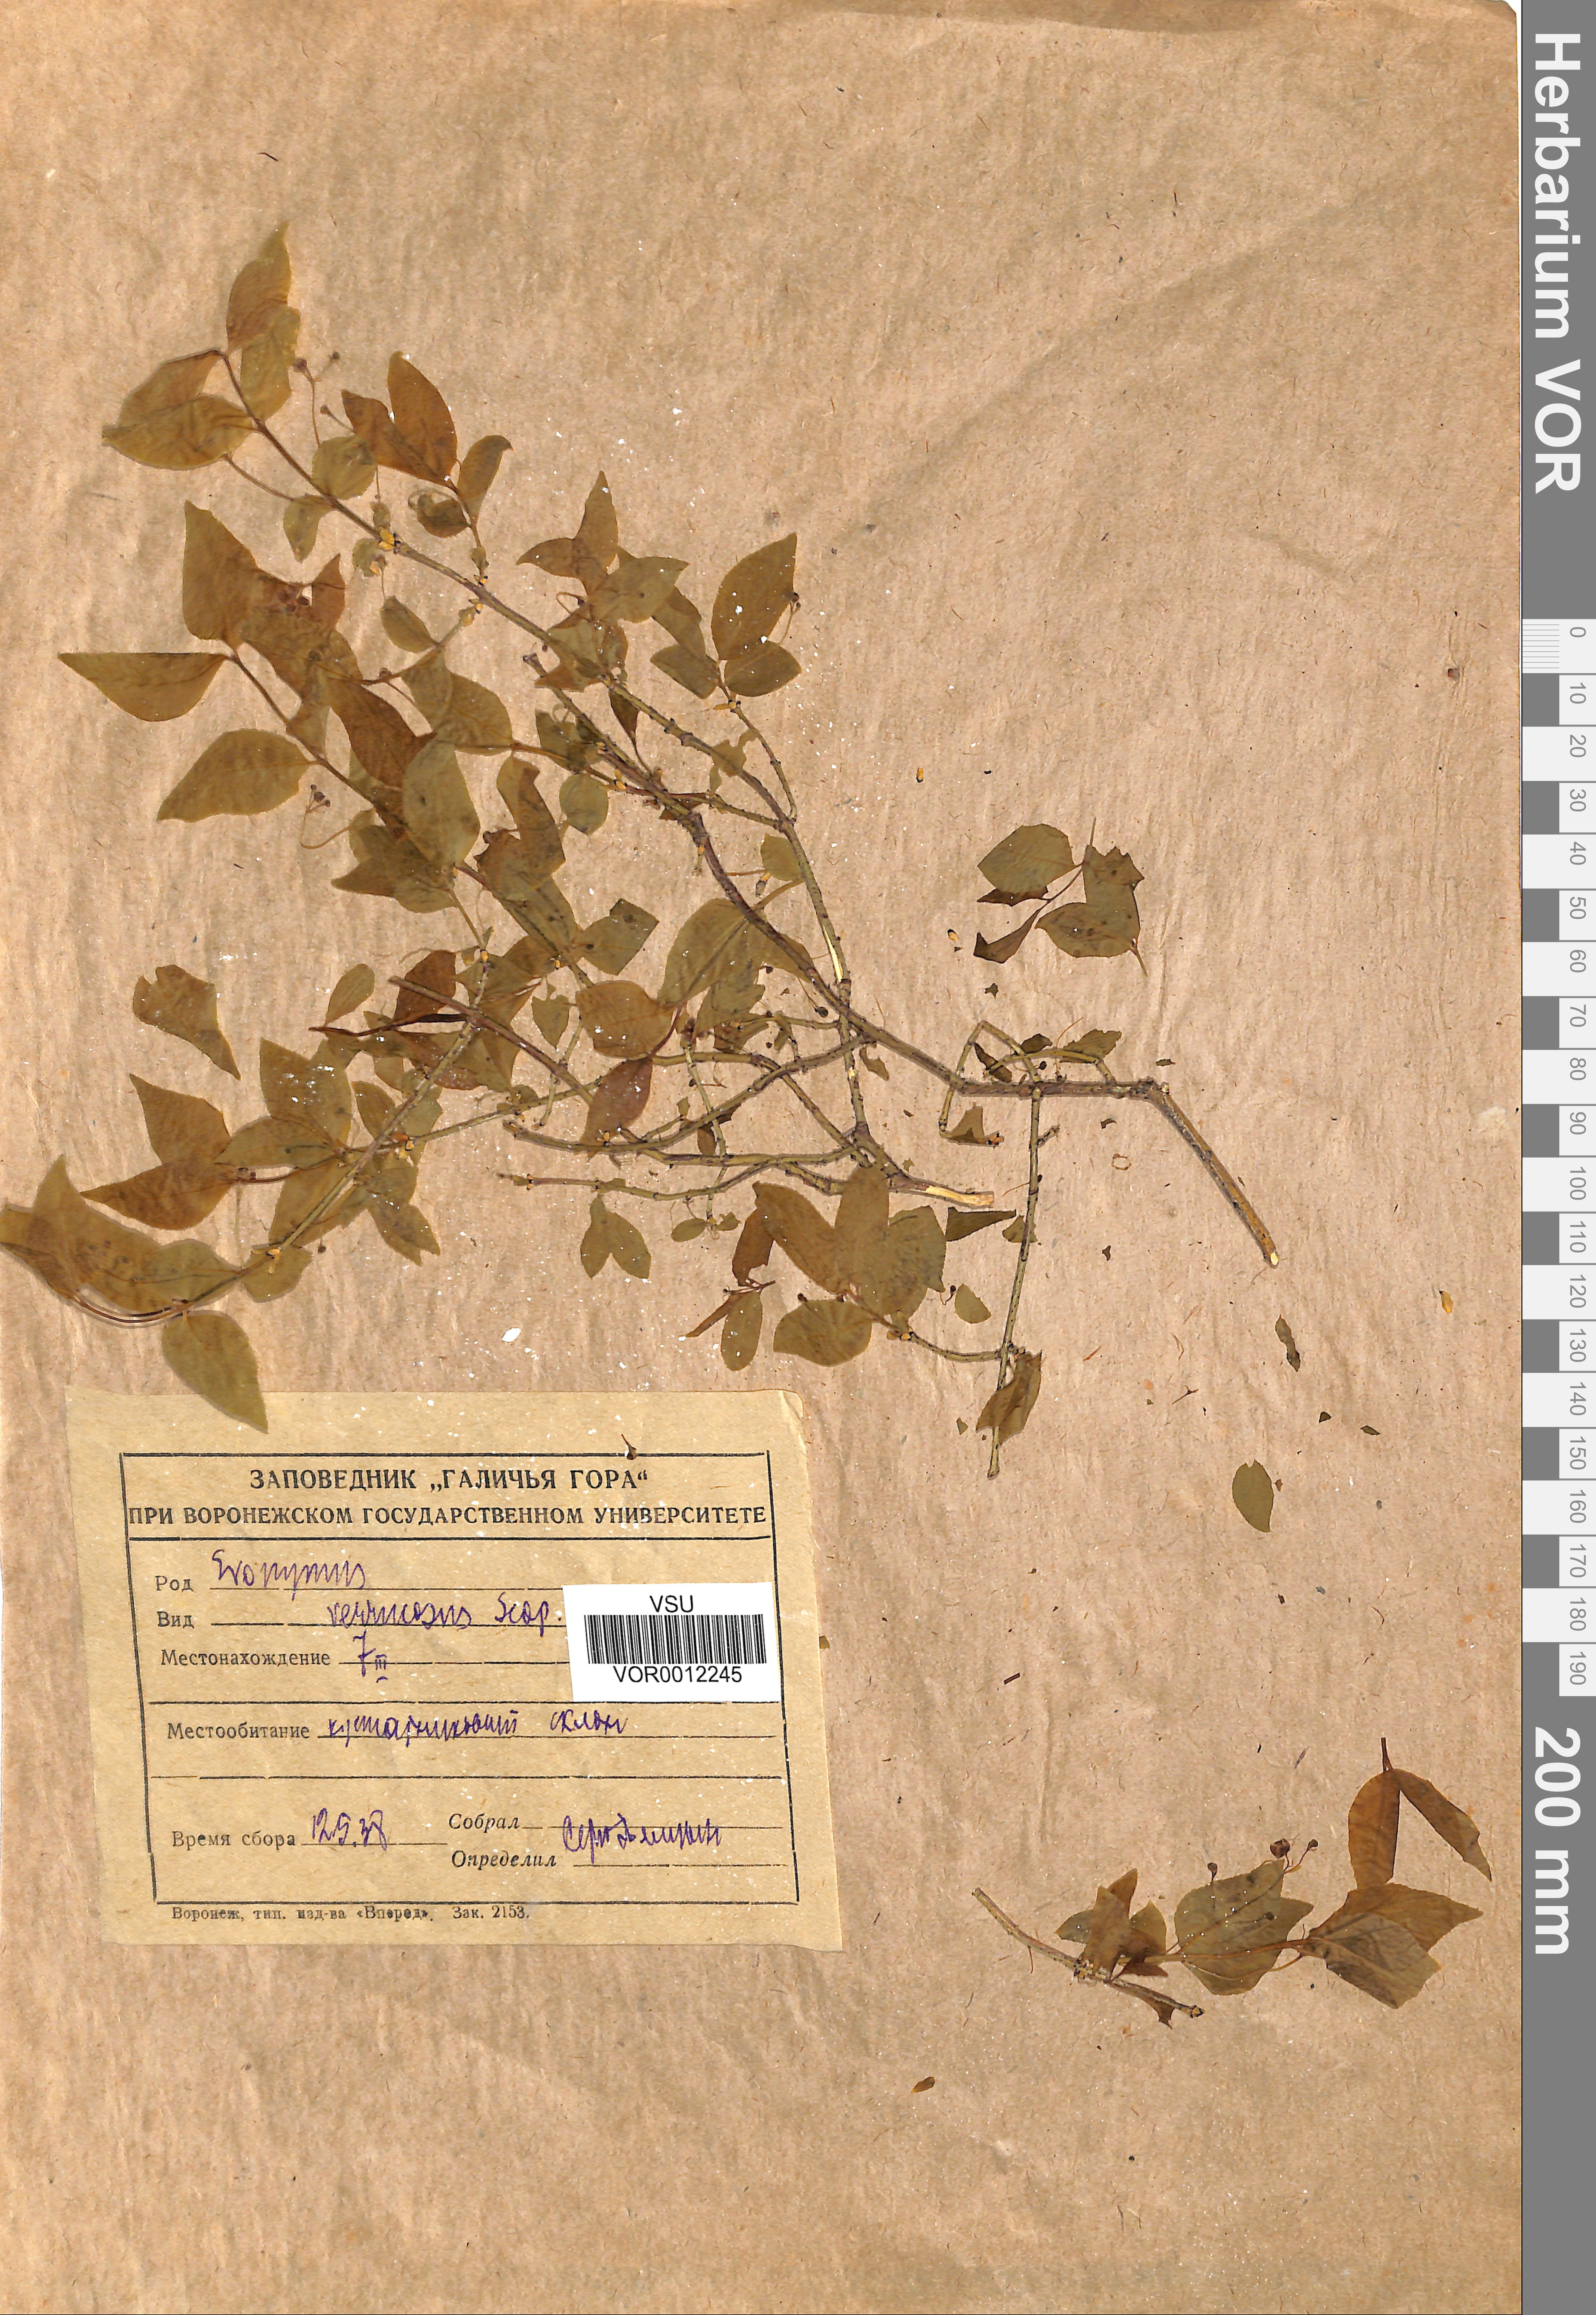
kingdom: Plantae
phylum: Tracheophyta
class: Magnoliopsida
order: Celastrales
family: Celastraceae
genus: Euonymus
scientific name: Euonymus verrucosus
